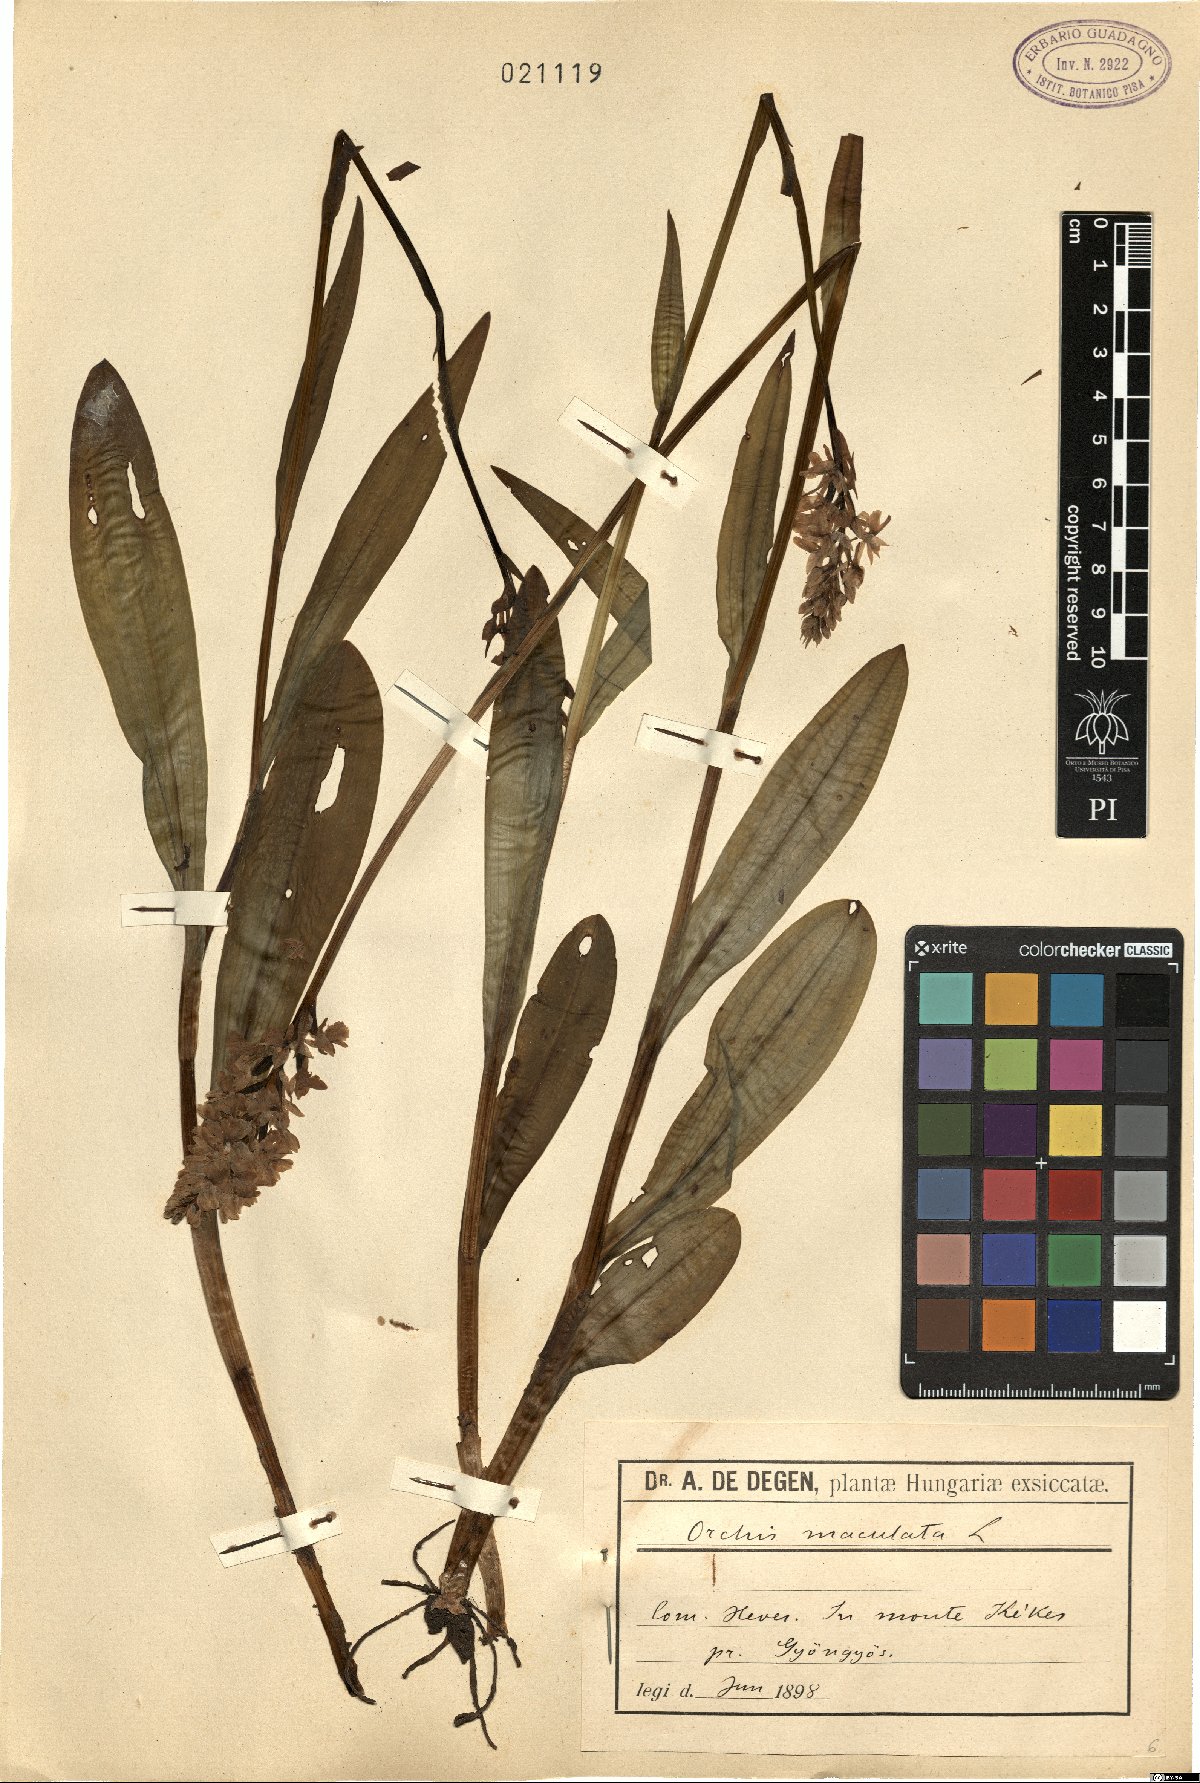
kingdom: Plantae
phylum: Tracheophyta
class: Liliopsida
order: Asparagales
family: Orchidaceae
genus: Dactylorhiza
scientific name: Dactylorhiza maculata
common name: Heath spotted-orchid
